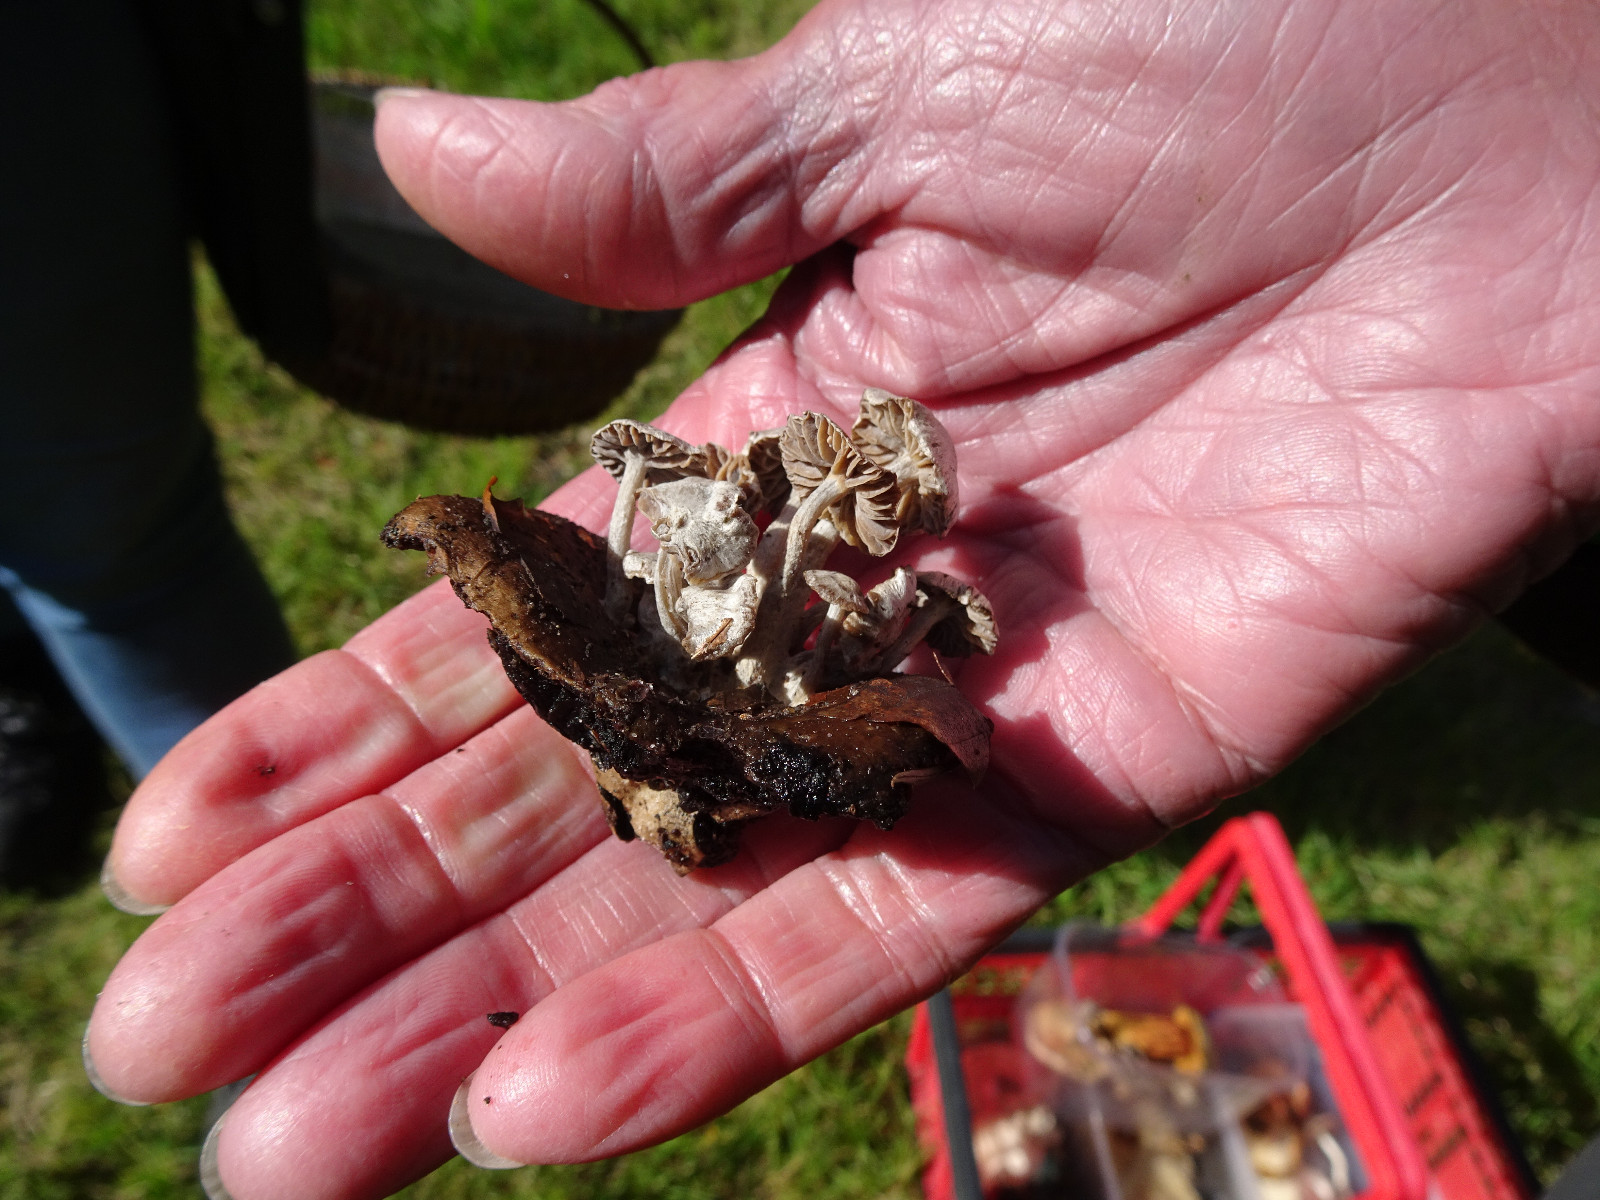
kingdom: Fungi
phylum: Basidiomycota
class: Agaricomycetes
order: Agaricales
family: Lyophyllaceae
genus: Asterophora
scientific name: Asterophora parasitica
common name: grå snyltehat
